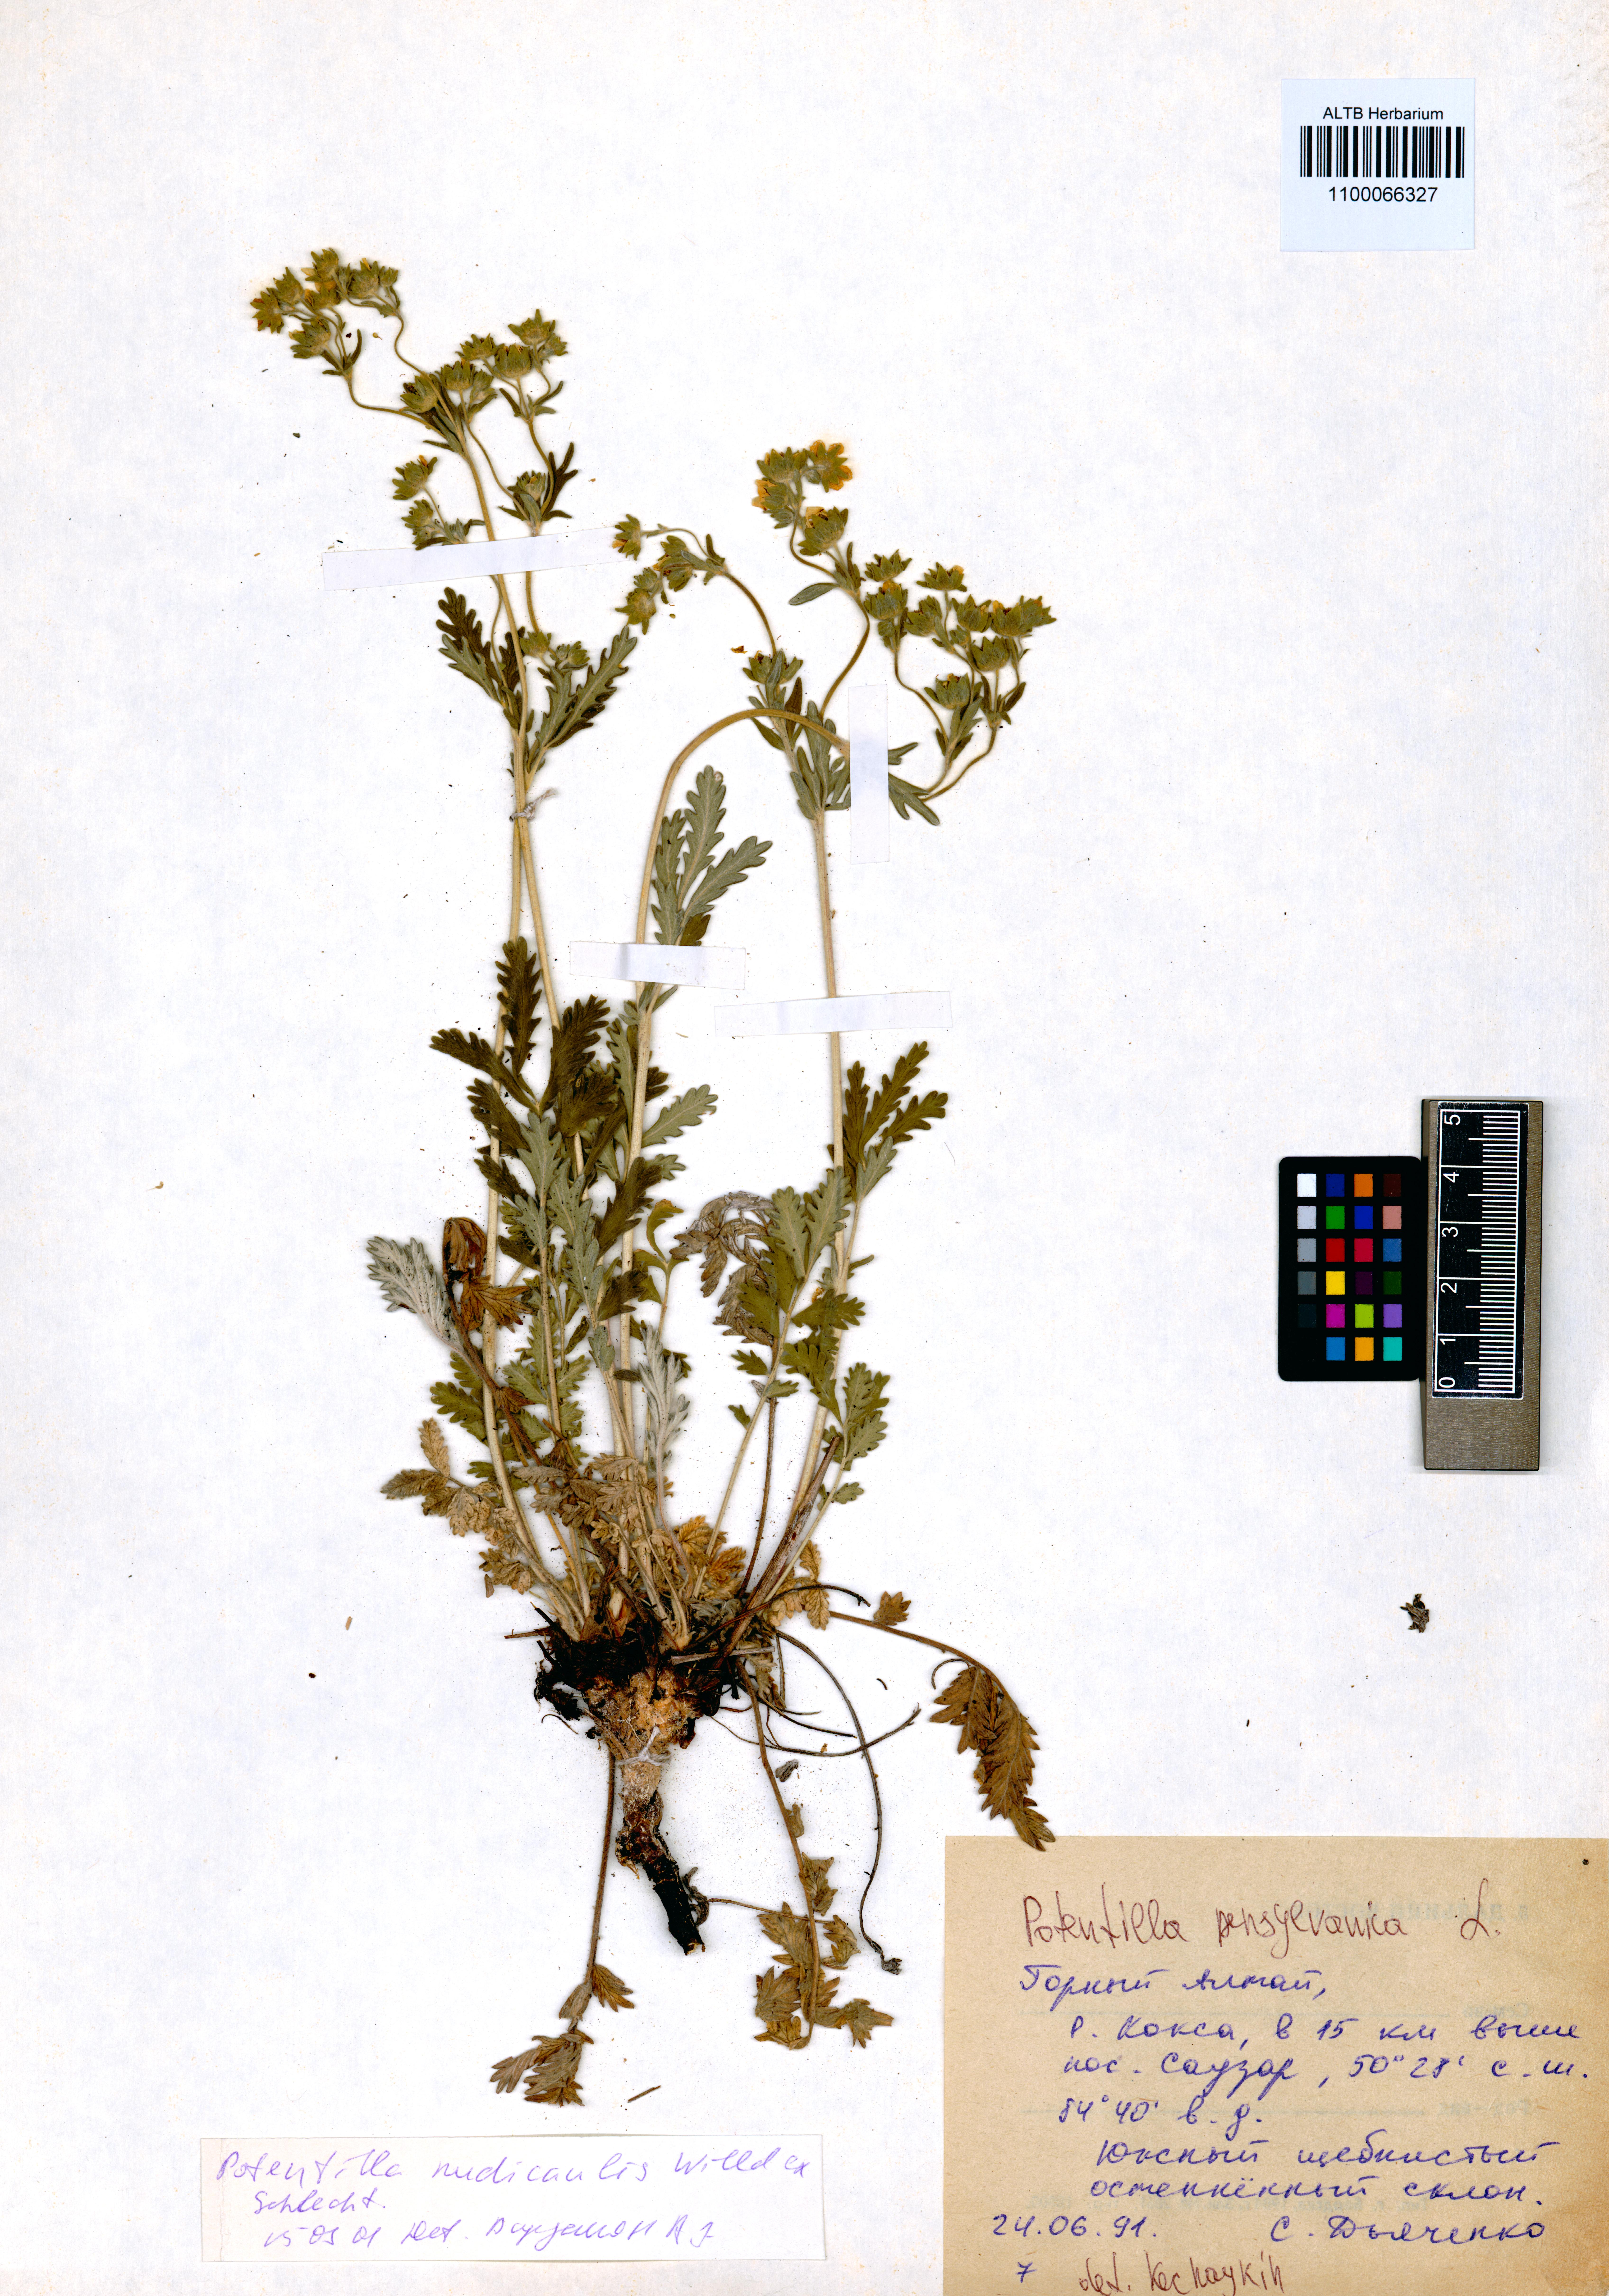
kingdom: Plantae
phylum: Tracheophyta
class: Magnoliopsida
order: Rosales
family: Rosaceae
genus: Potentilla
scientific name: Potentilla pensylvanica
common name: Pennsylvania cinquefoil
